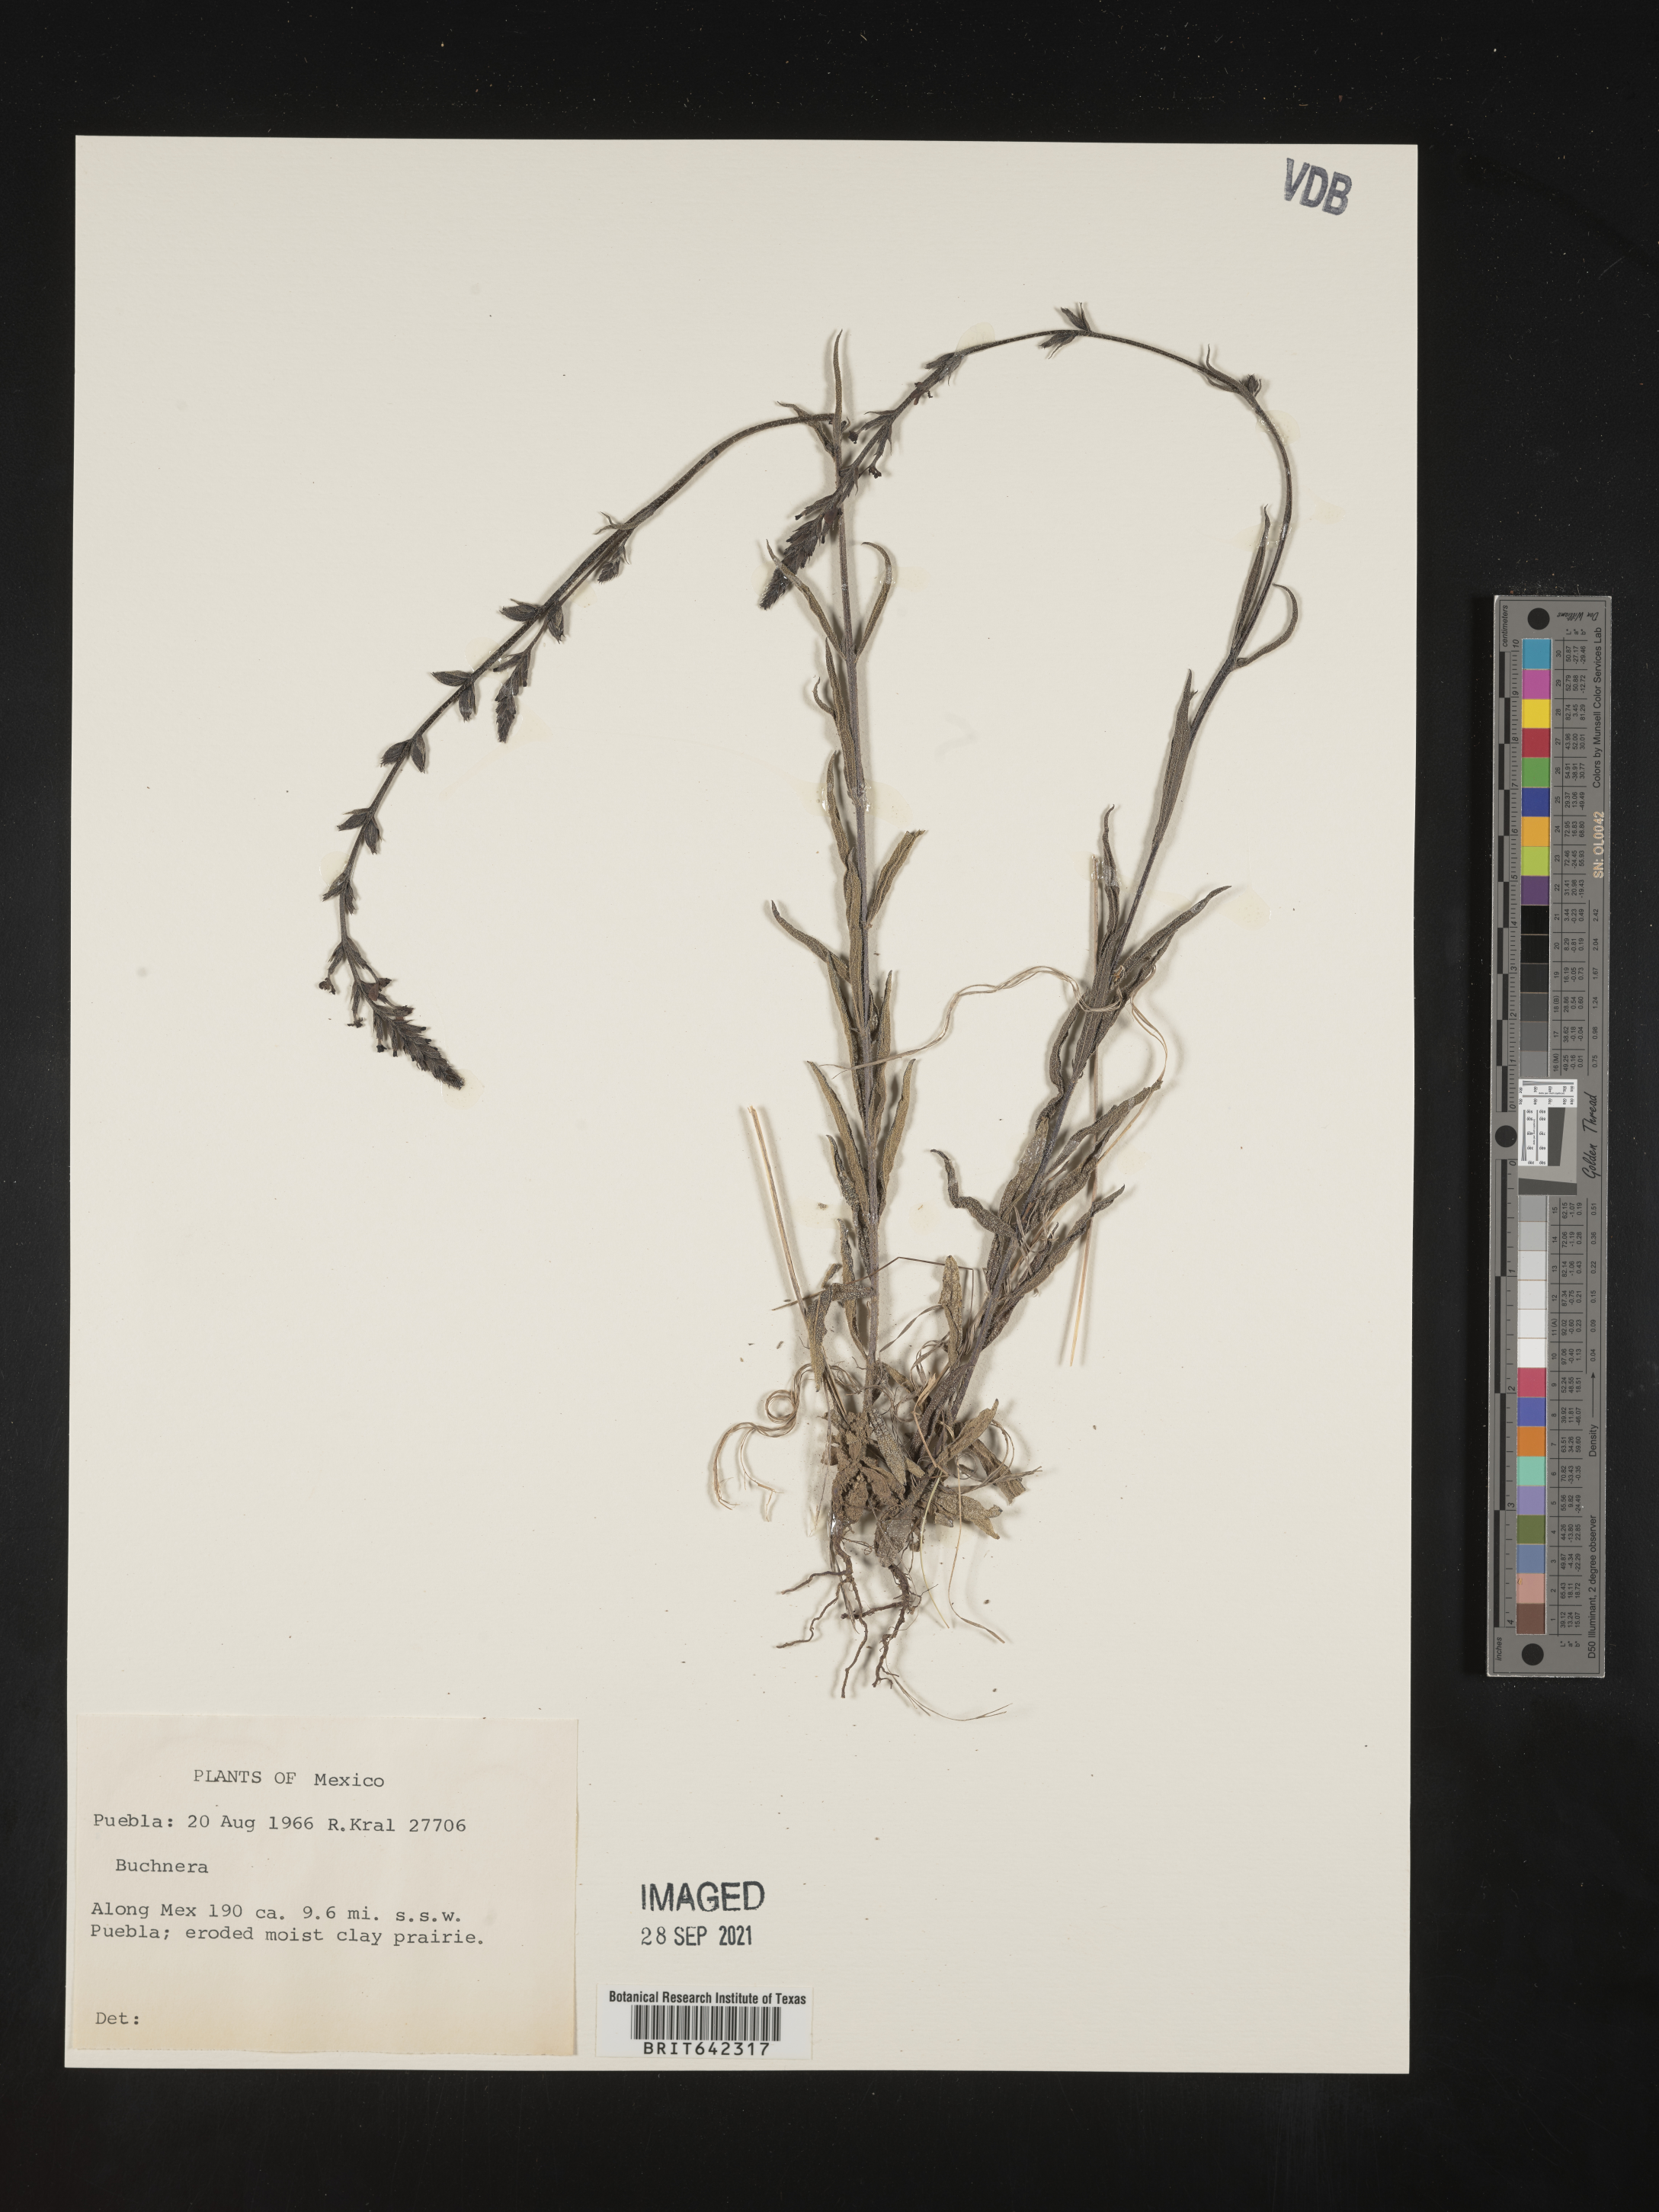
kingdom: Plantae
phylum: Tracheophyta
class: Magnoliopsida
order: Lamiales
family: Orobanchaceae
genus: Buchnera
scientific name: Buchnera
